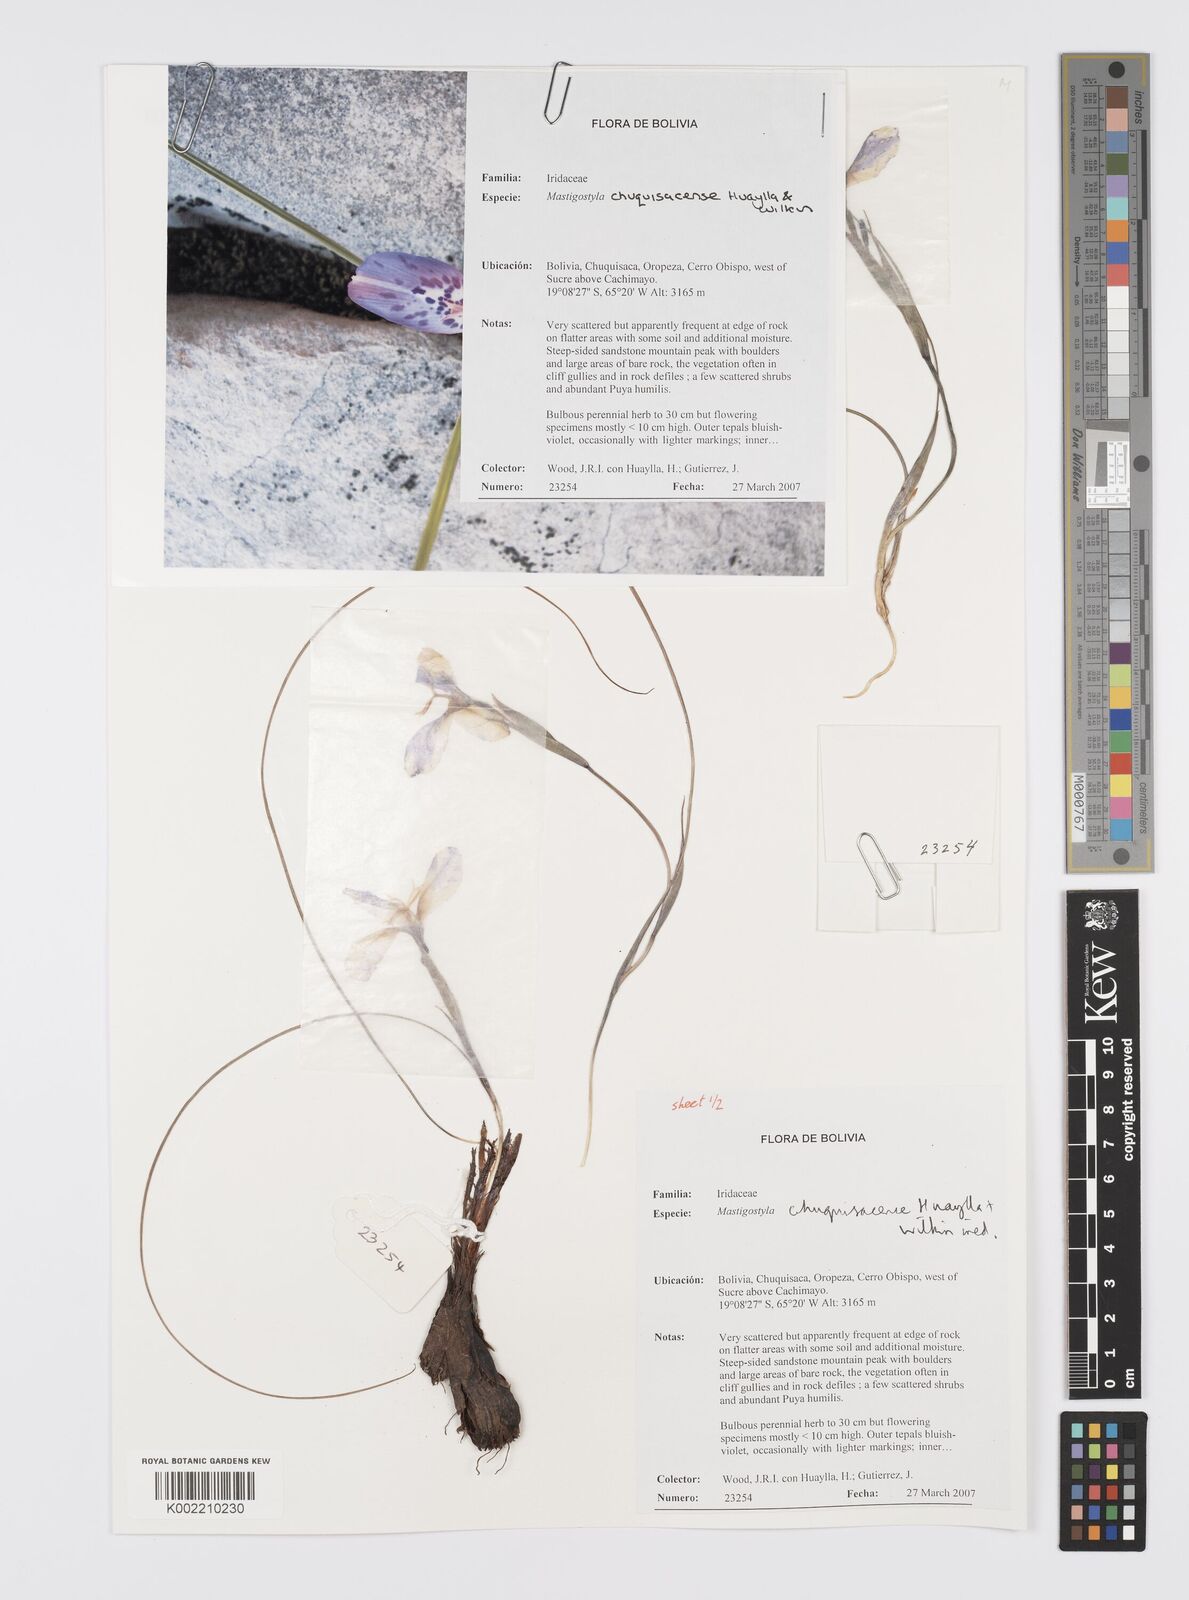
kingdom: Plantae
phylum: Tracheophyta
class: Liliopsida
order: Asparagales
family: Iridaceae
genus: Mastigostyla
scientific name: Mastigostyla chuquisacensis
